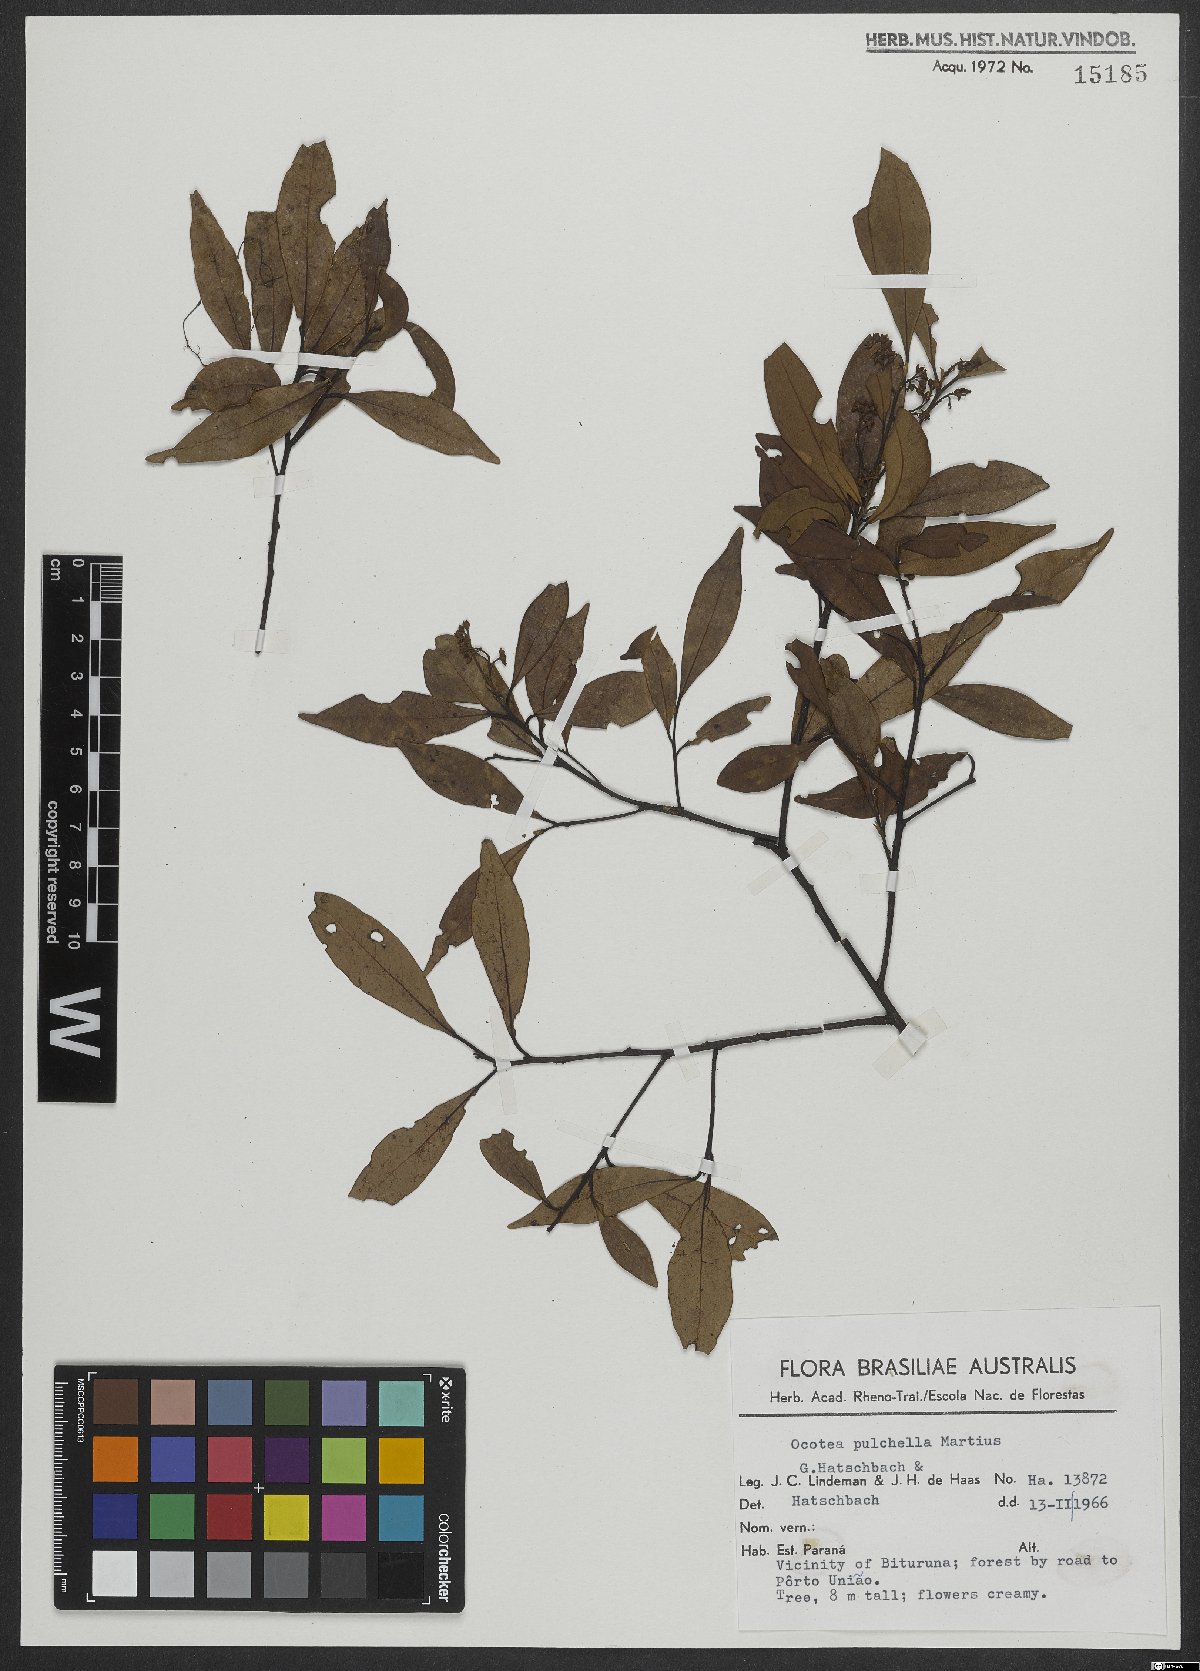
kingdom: Plantae
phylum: Tracheophyta
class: Magnoliopsida
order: Laurales
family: Lauraceae
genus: Mespilodaphne
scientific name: Mespilodaphne pulchella
